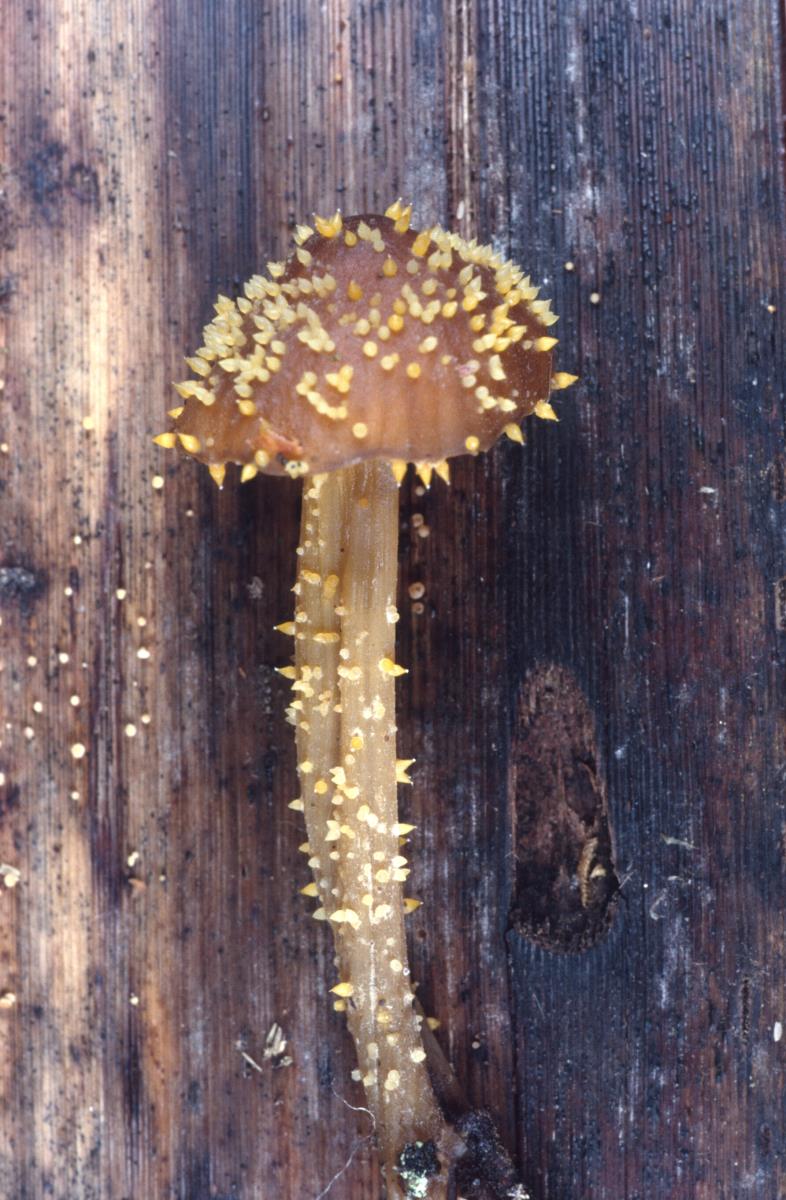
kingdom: Fungi
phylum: Ascomycota
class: Sordariomycetes
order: Hypocreales
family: Clavicipitaceae
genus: Neobarya
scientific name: Neobarya agaricicola
